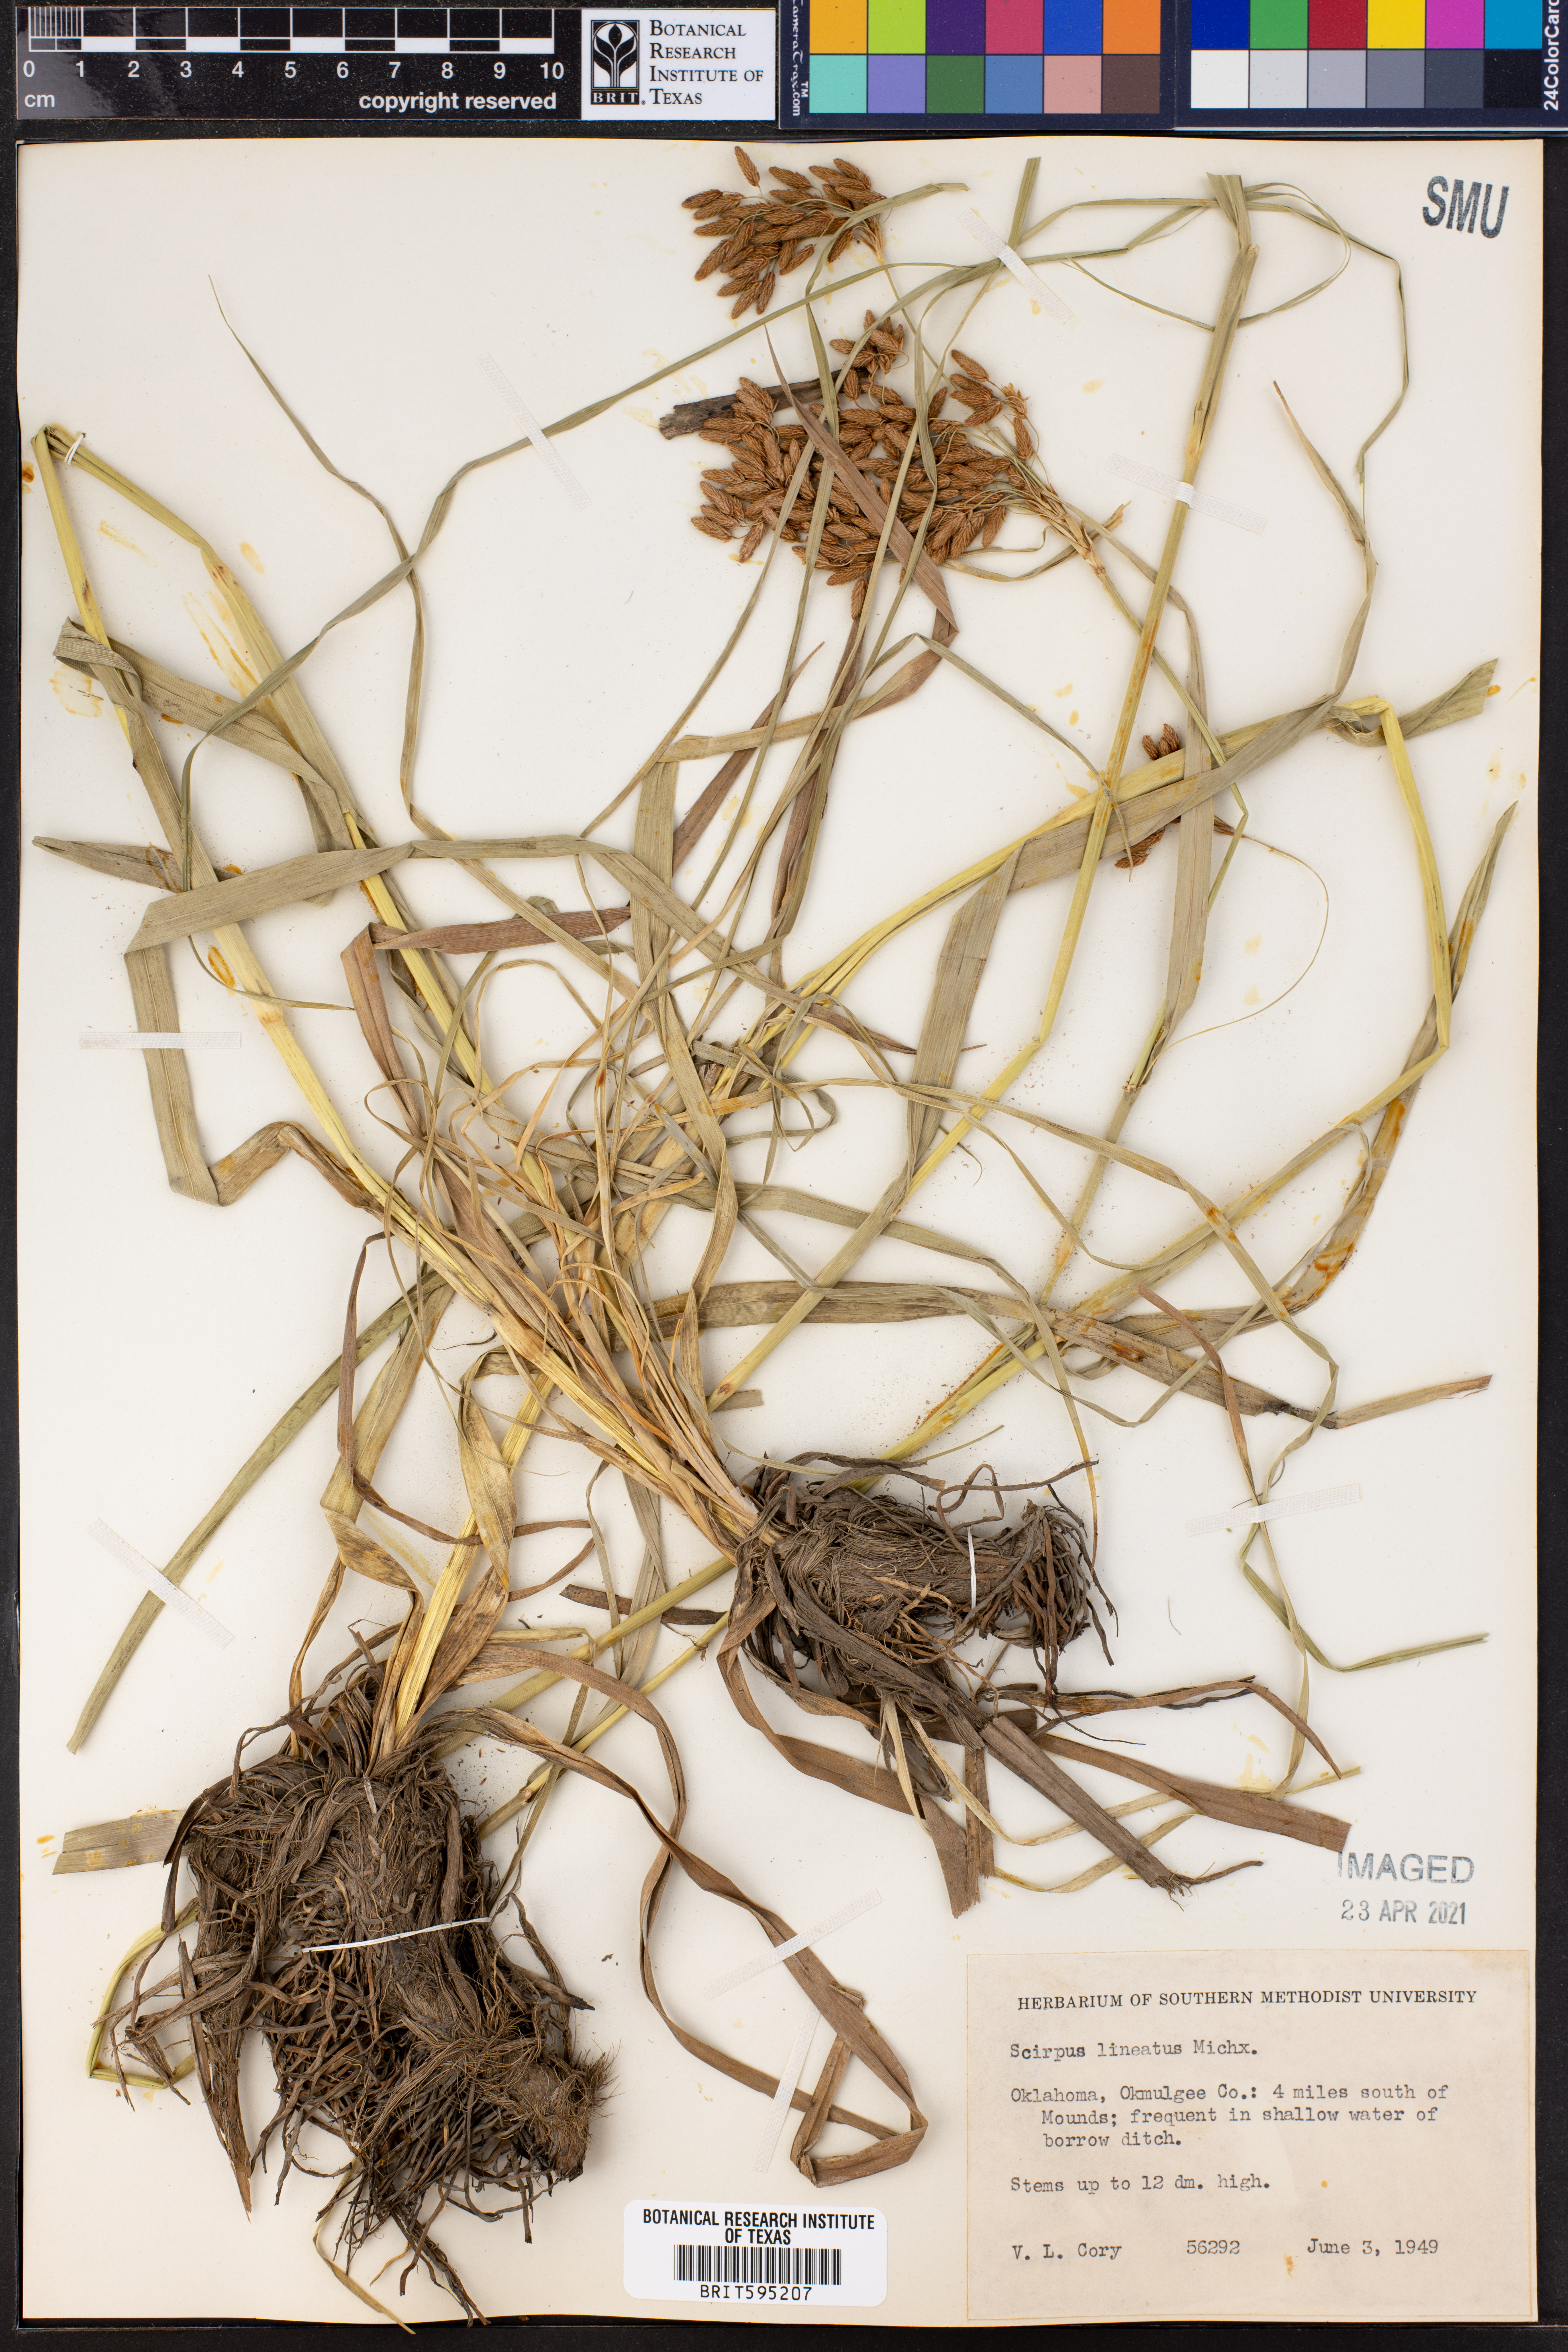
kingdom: Plantae
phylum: Tracheophyta
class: Liliopsida
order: Poales
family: Cyperaceae
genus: Scirpus
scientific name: Scirpus lineatus
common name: Drooping bulrush
